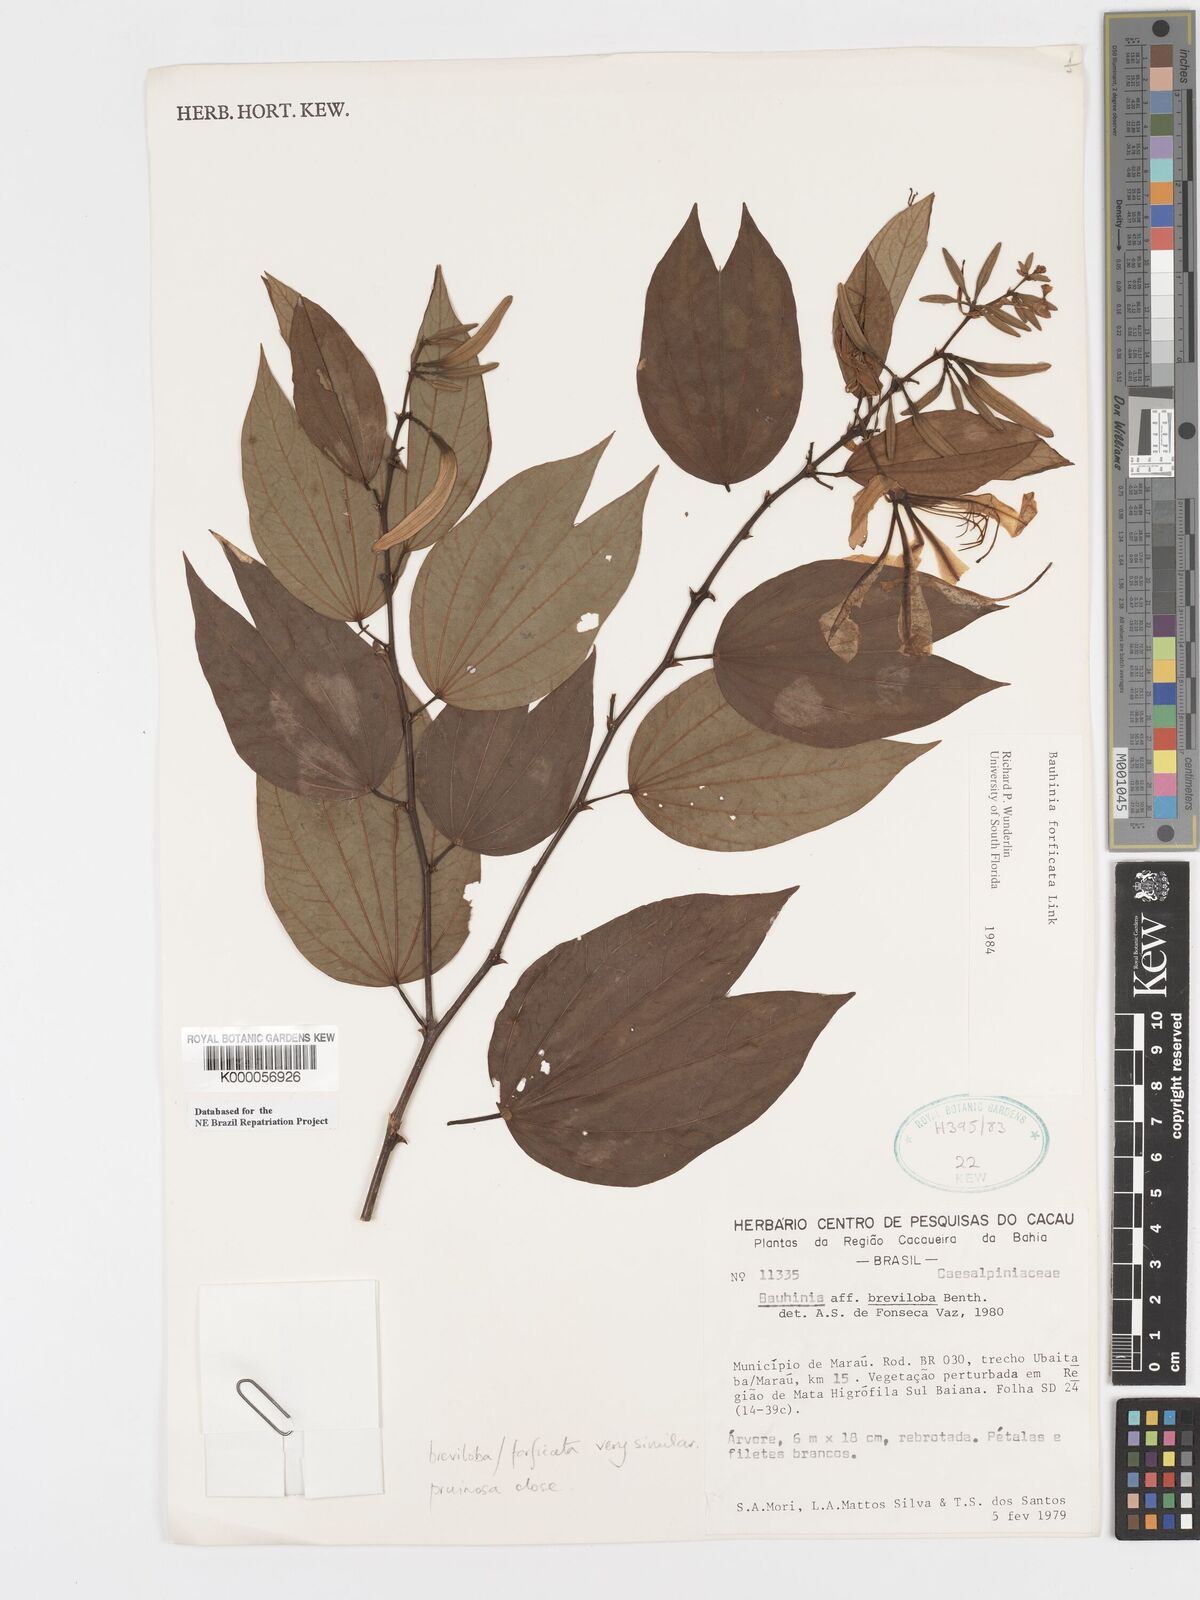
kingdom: Plantae
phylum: Tracheophyta
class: Magnoliopsida
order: Fabales
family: Fabaceae
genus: Bauhinia
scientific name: Bauhinia forficata
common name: Orchid tree
